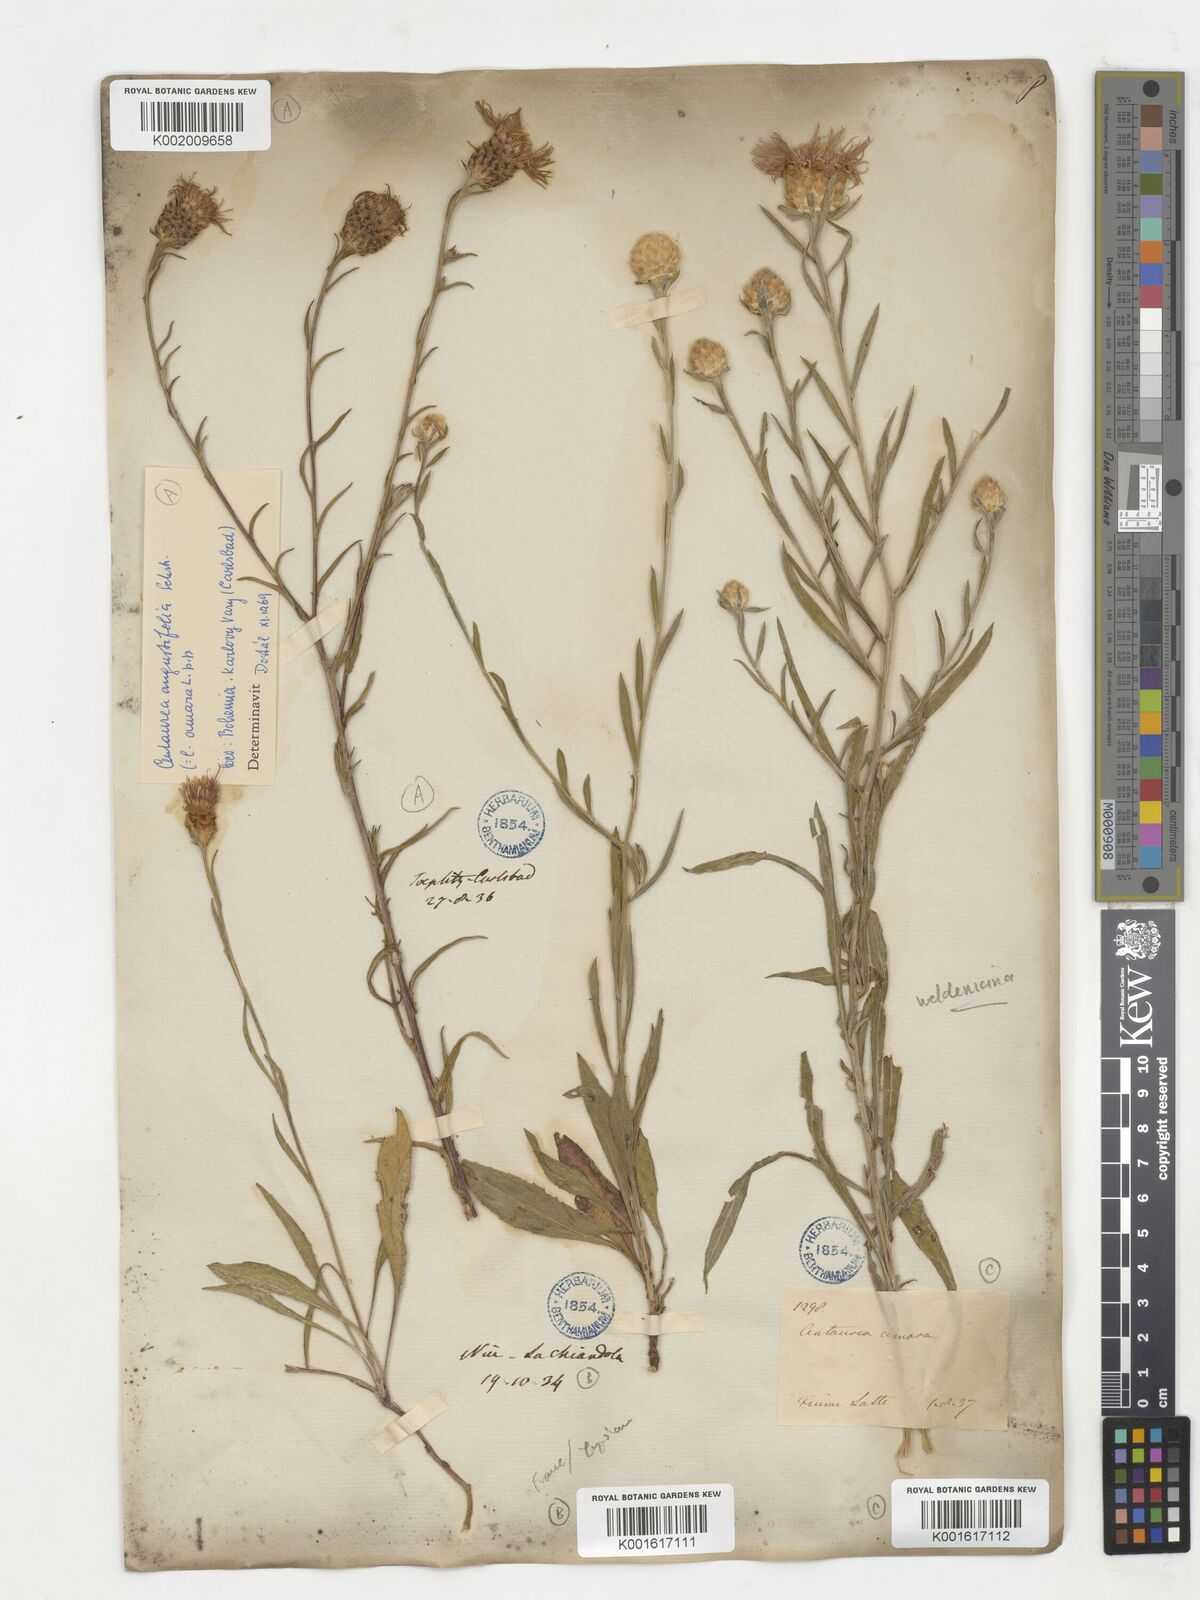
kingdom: Plantae
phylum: Tracheophyta
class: Magnoliopsida
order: Asterales
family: Asteraceae
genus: Centaurea
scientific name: Centaurea jacea
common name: Brown knapweed
